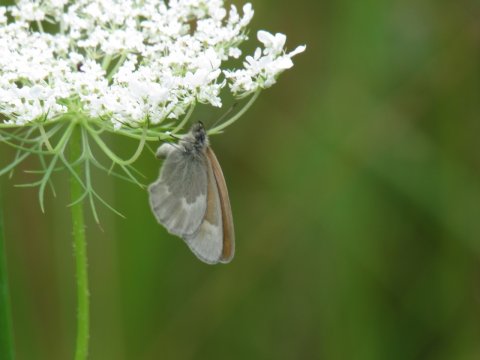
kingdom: Animalia
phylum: Arthropoda
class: Insecta
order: Lepidoptera
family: Nymphalidae
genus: Coenonympha
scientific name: Coenonympha tullia
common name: Large Heath
